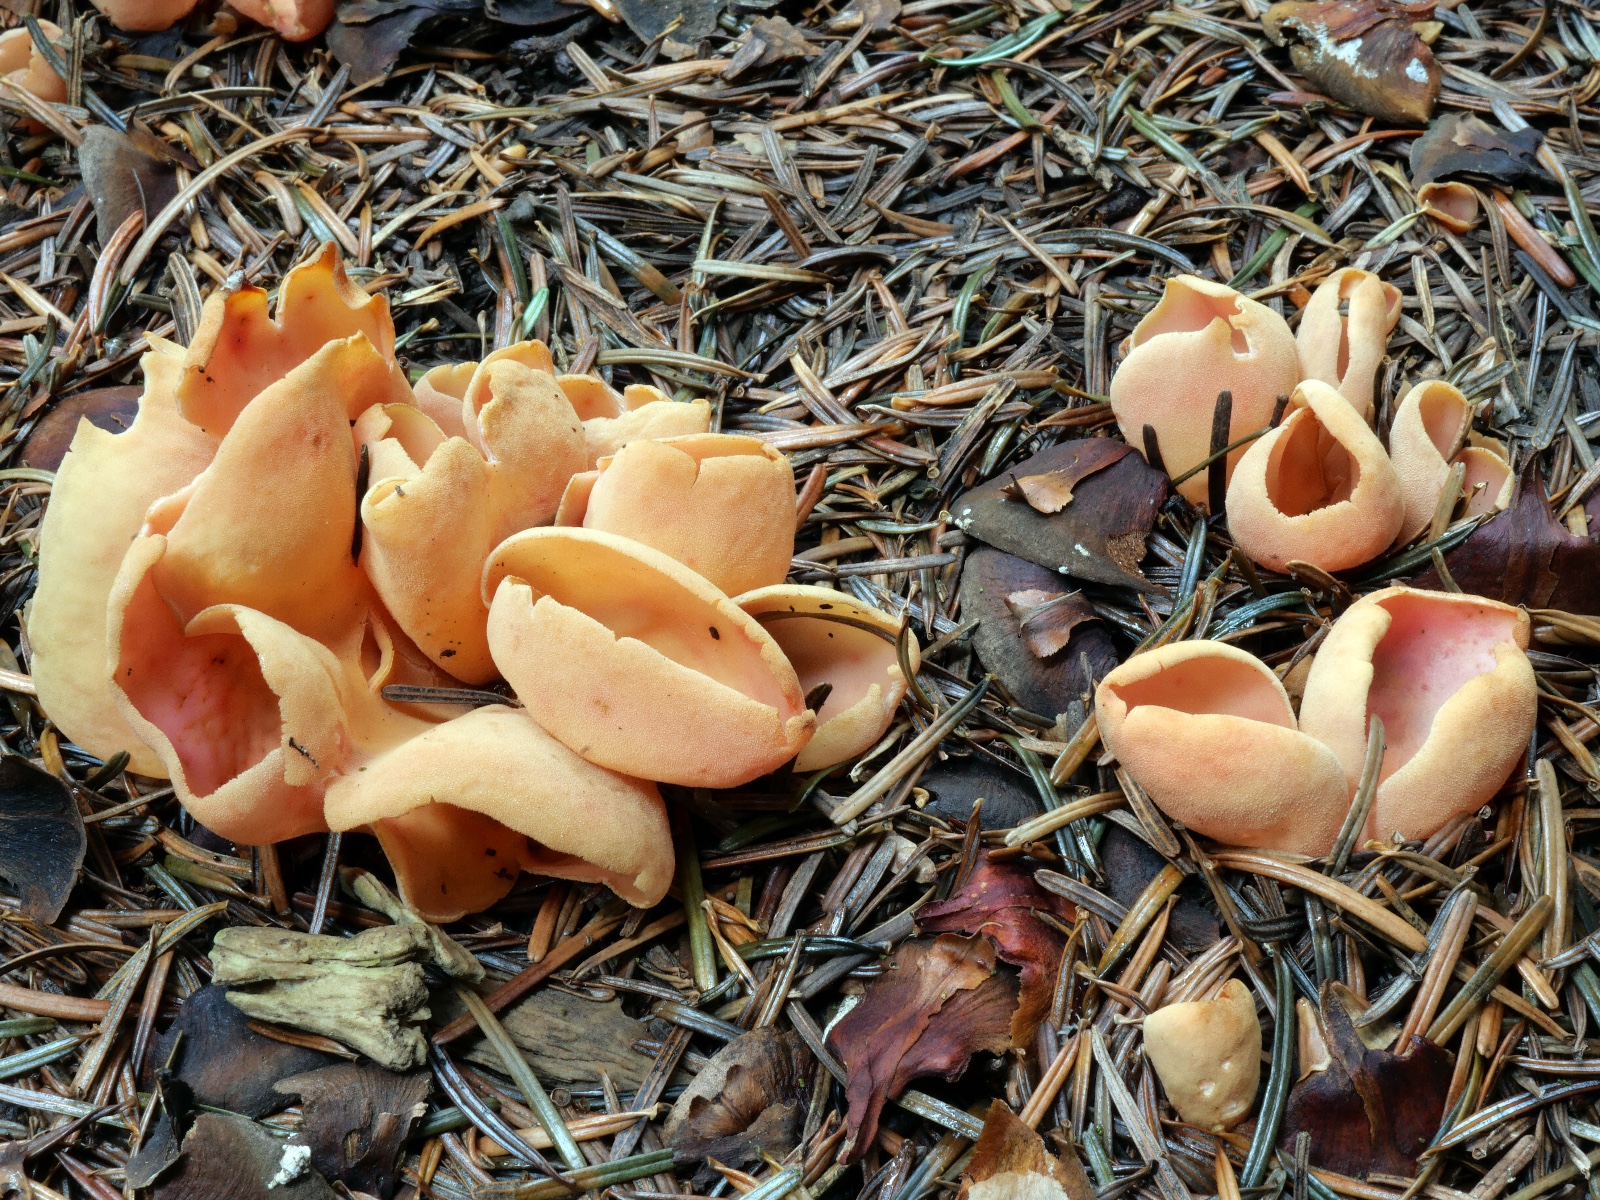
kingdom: Fungi
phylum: Ascomycota
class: Pezizomycetes
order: Pezizales
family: Otideaceae
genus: Otidea
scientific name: Otidea onotica
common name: æsel-ørebæger
